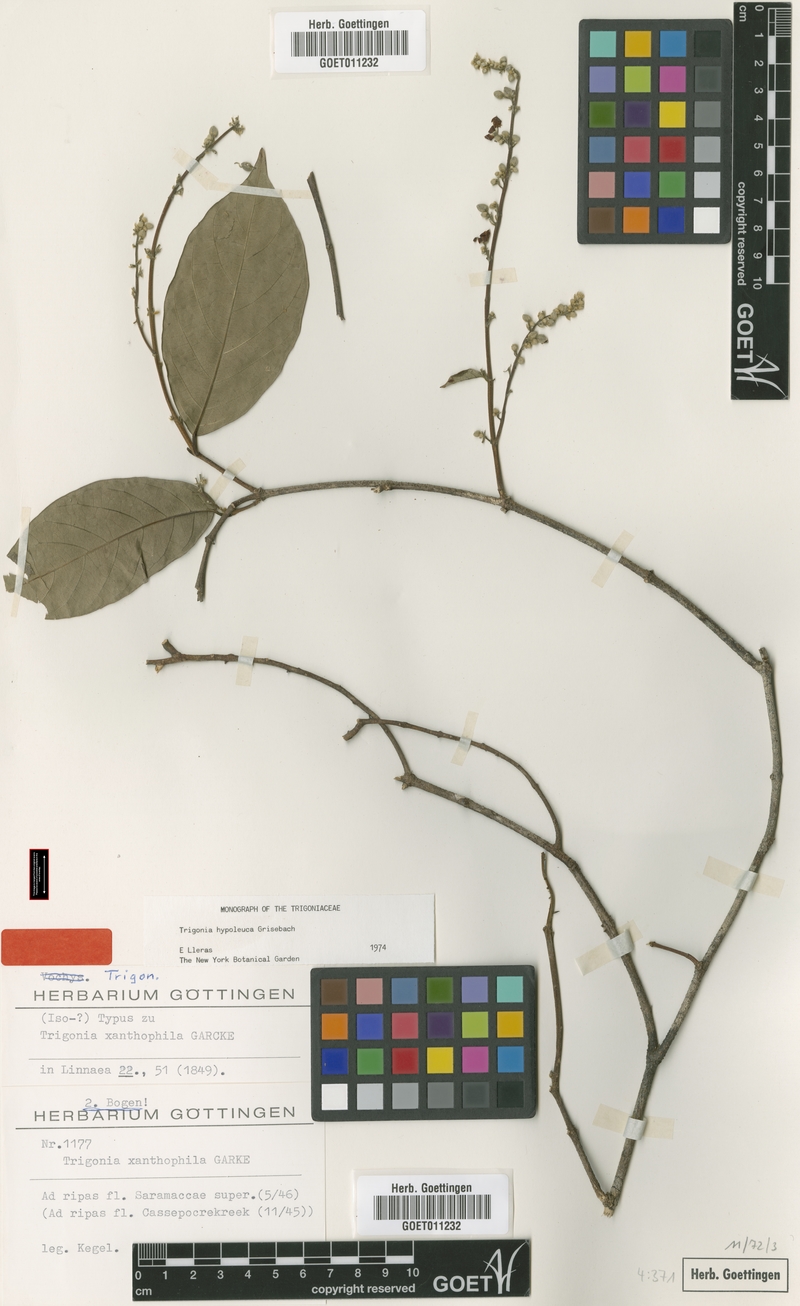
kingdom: Plantae
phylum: Tracheophyta
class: Magnoliopsida
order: Malpighiales
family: Trigoniaceae
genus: Trigonia
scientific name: Trigonia hypoleuca
